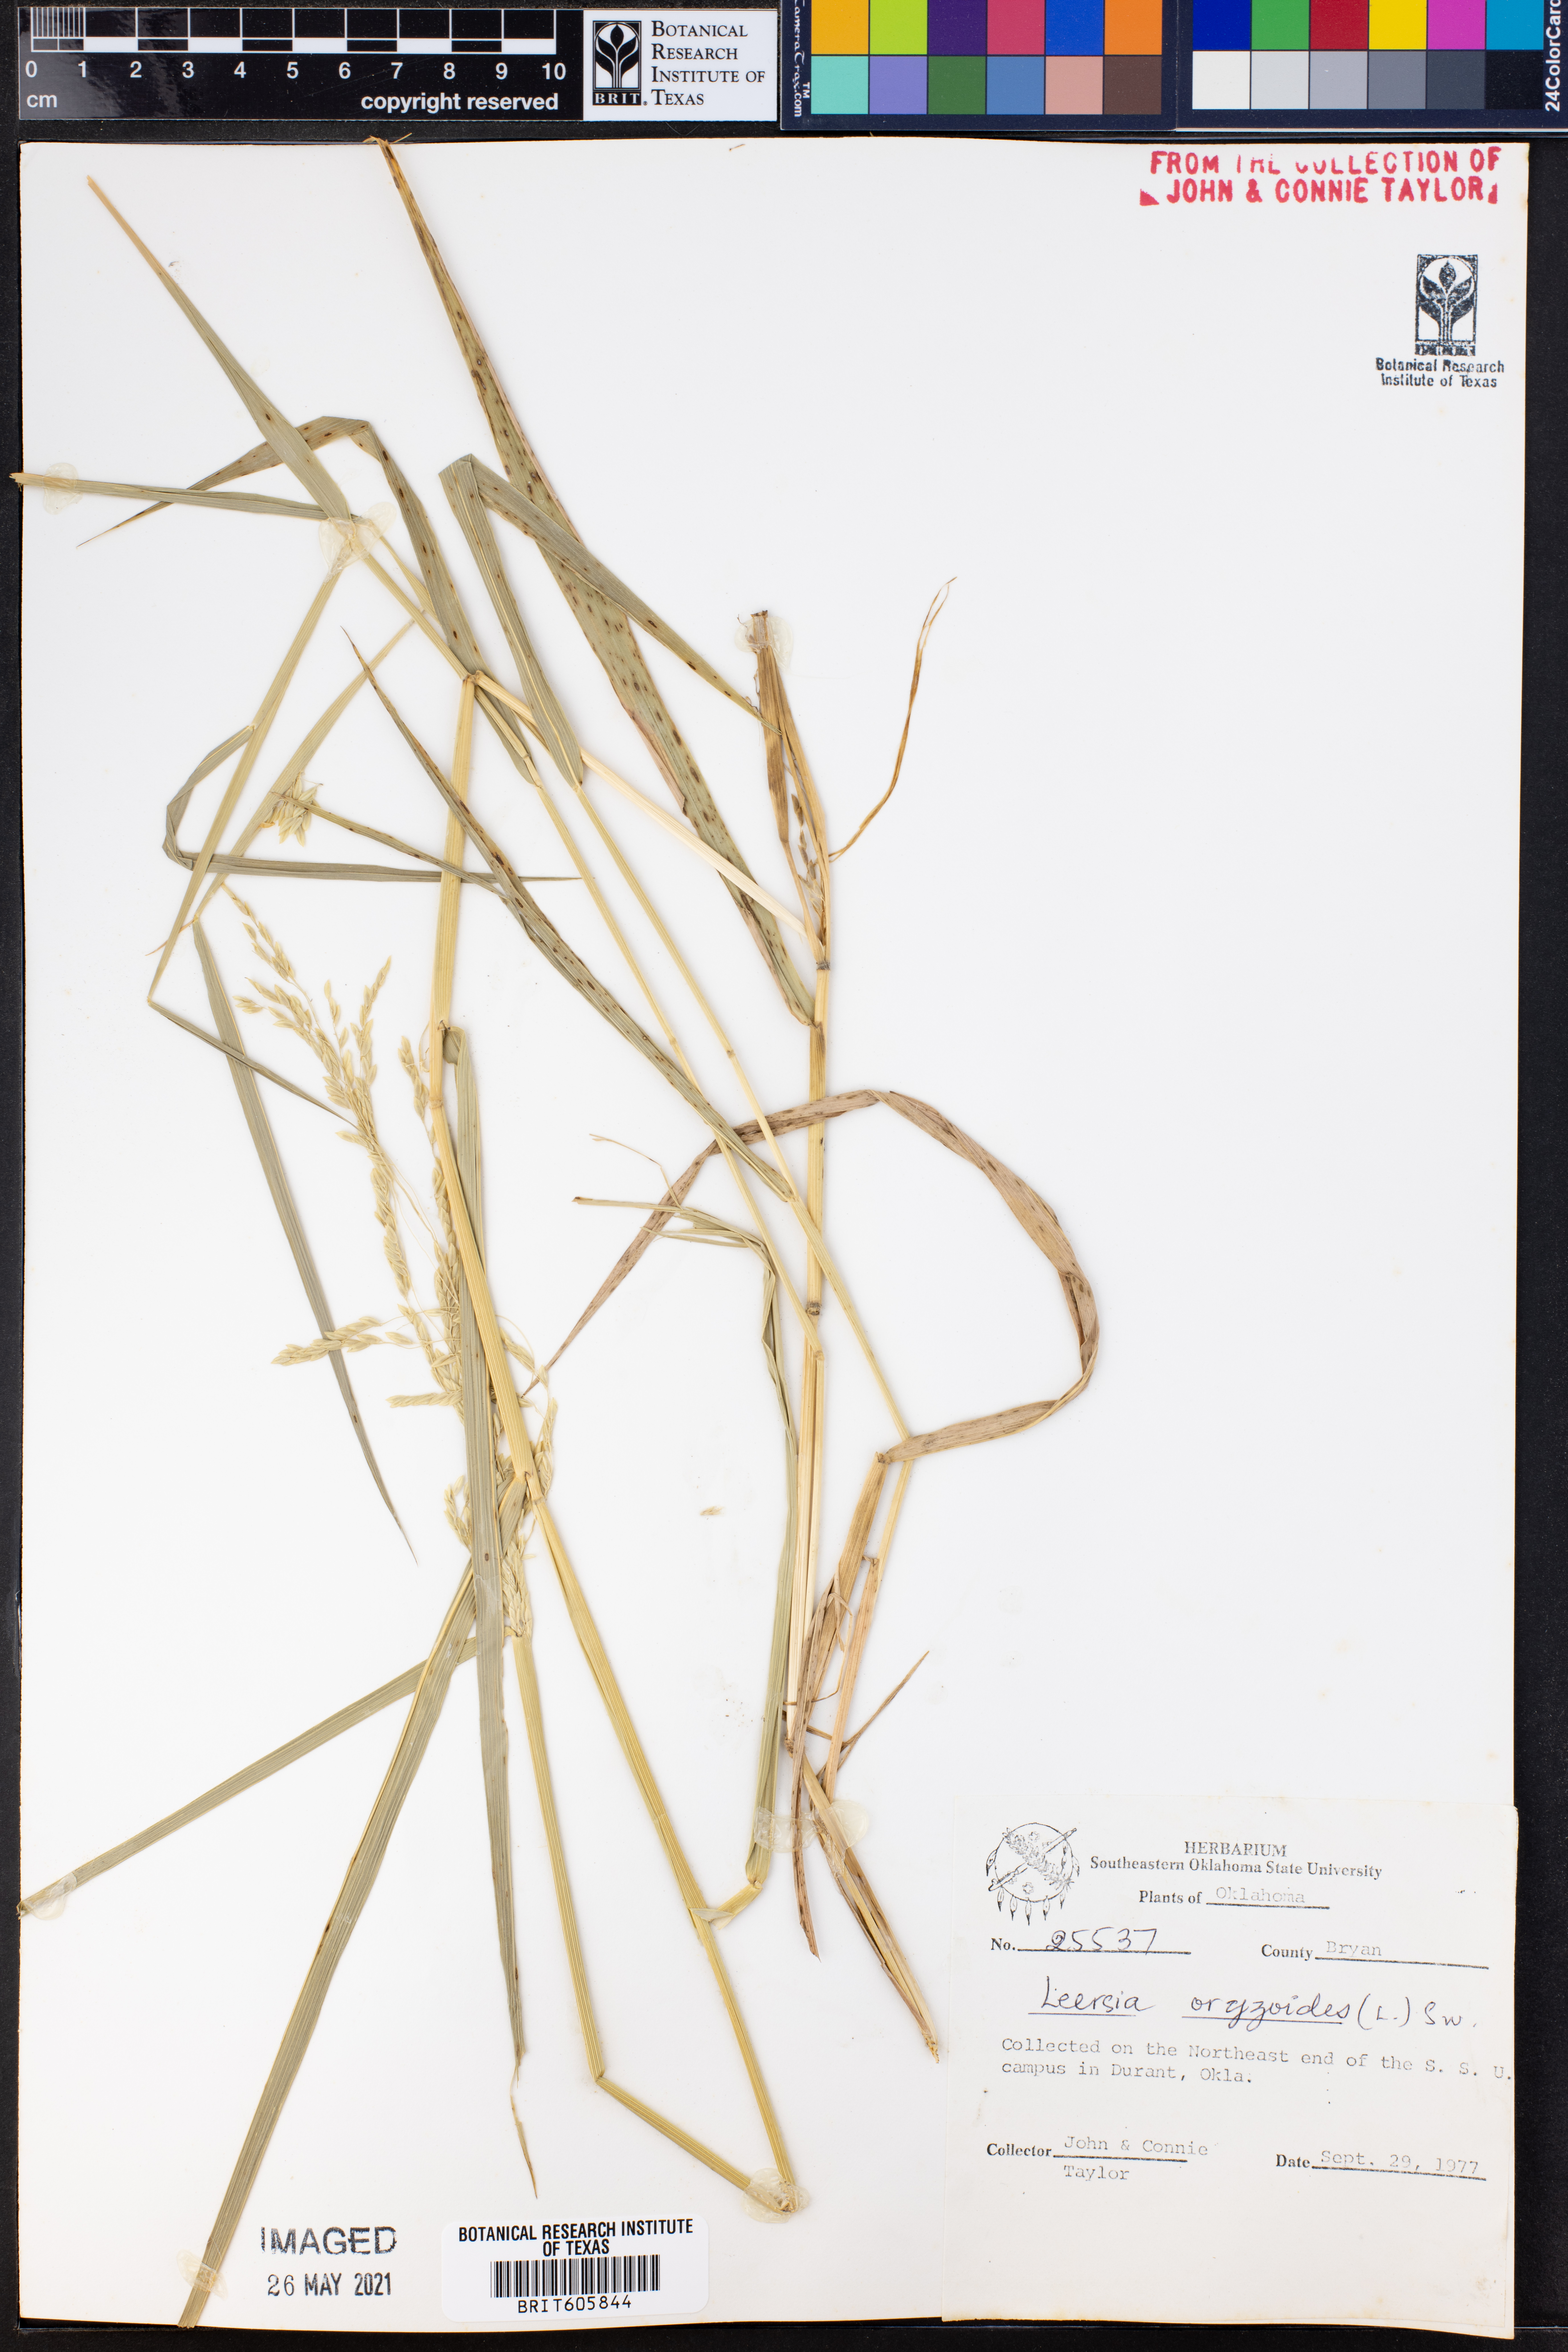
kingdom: Plantae
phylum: Tracheophyta
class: Liliopsida
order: Poales
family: Poaceae
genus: Leersia
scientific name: Leersia oryzoides
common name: Cut-grass
